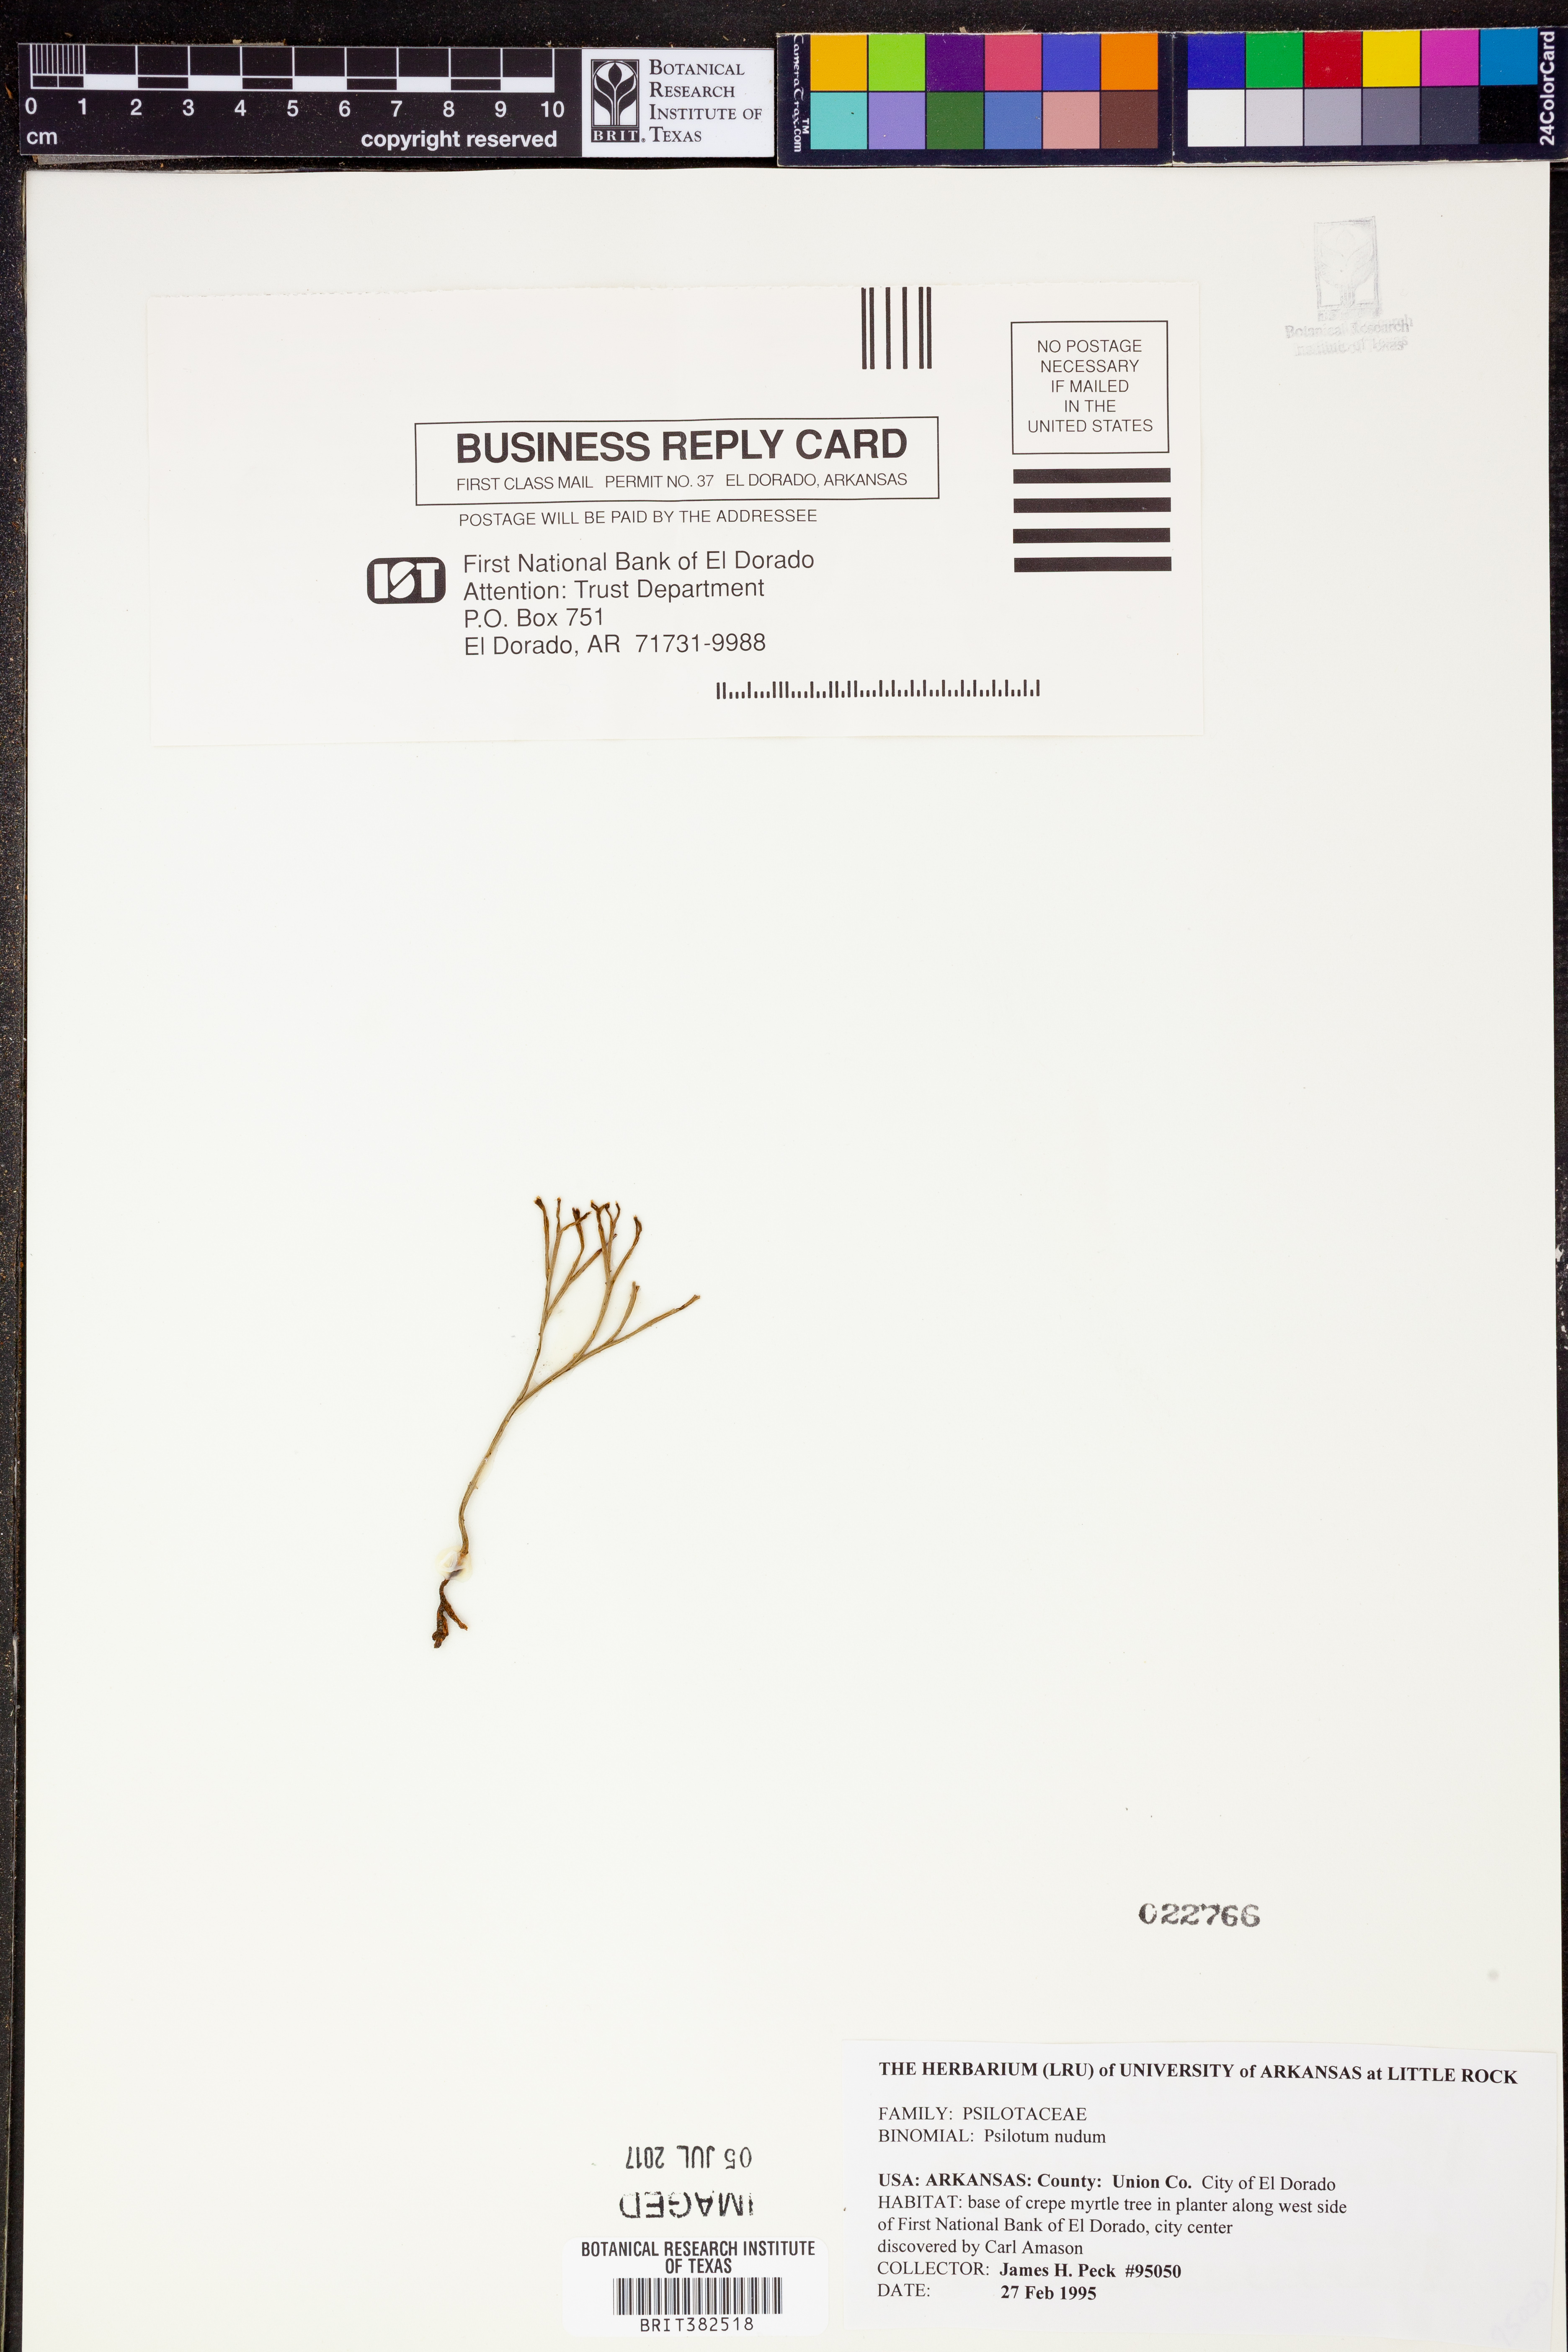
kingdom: Plantae
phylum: Tracheophyta
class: Polypodiopsida
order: Psilotales
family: Psilotaceae
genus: Psilotum
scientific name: Psilotum nudum
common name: Skeleton fork fern
